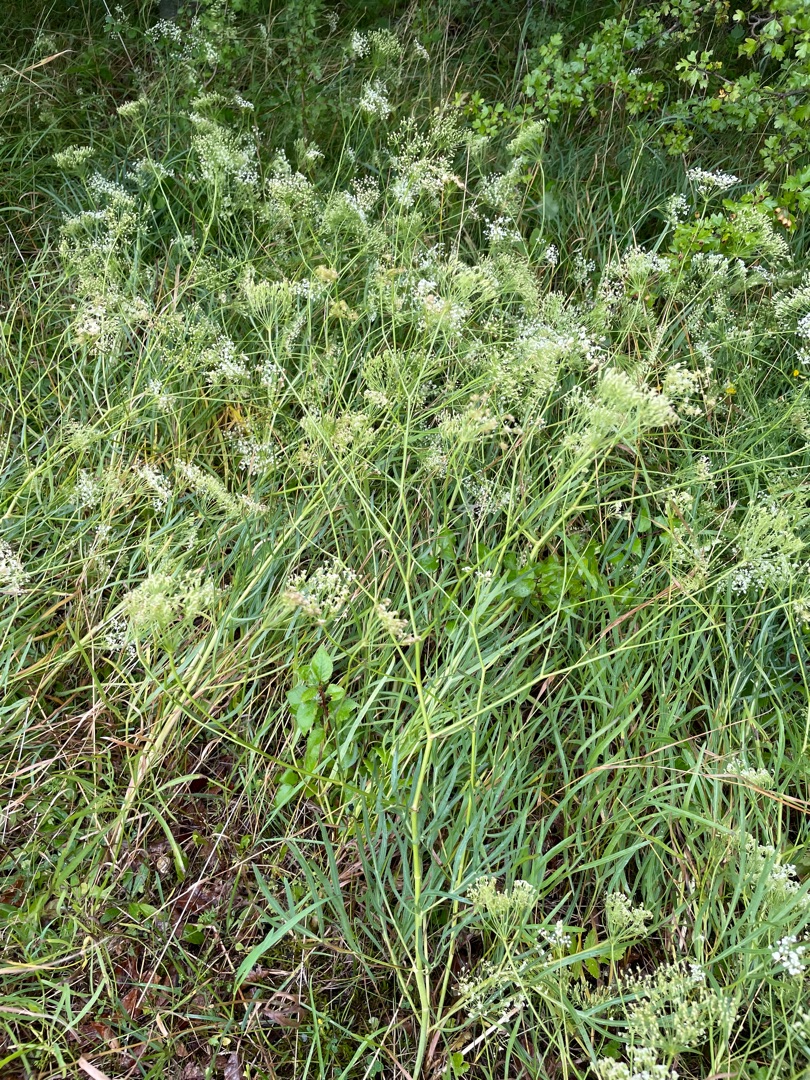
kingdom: Plantae
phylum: Tracheophyta
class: Magnoliopsida
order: Apiales
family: Apiaceae
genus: Falcaria
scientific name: Falcaria vulgaris
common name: Seglblad
